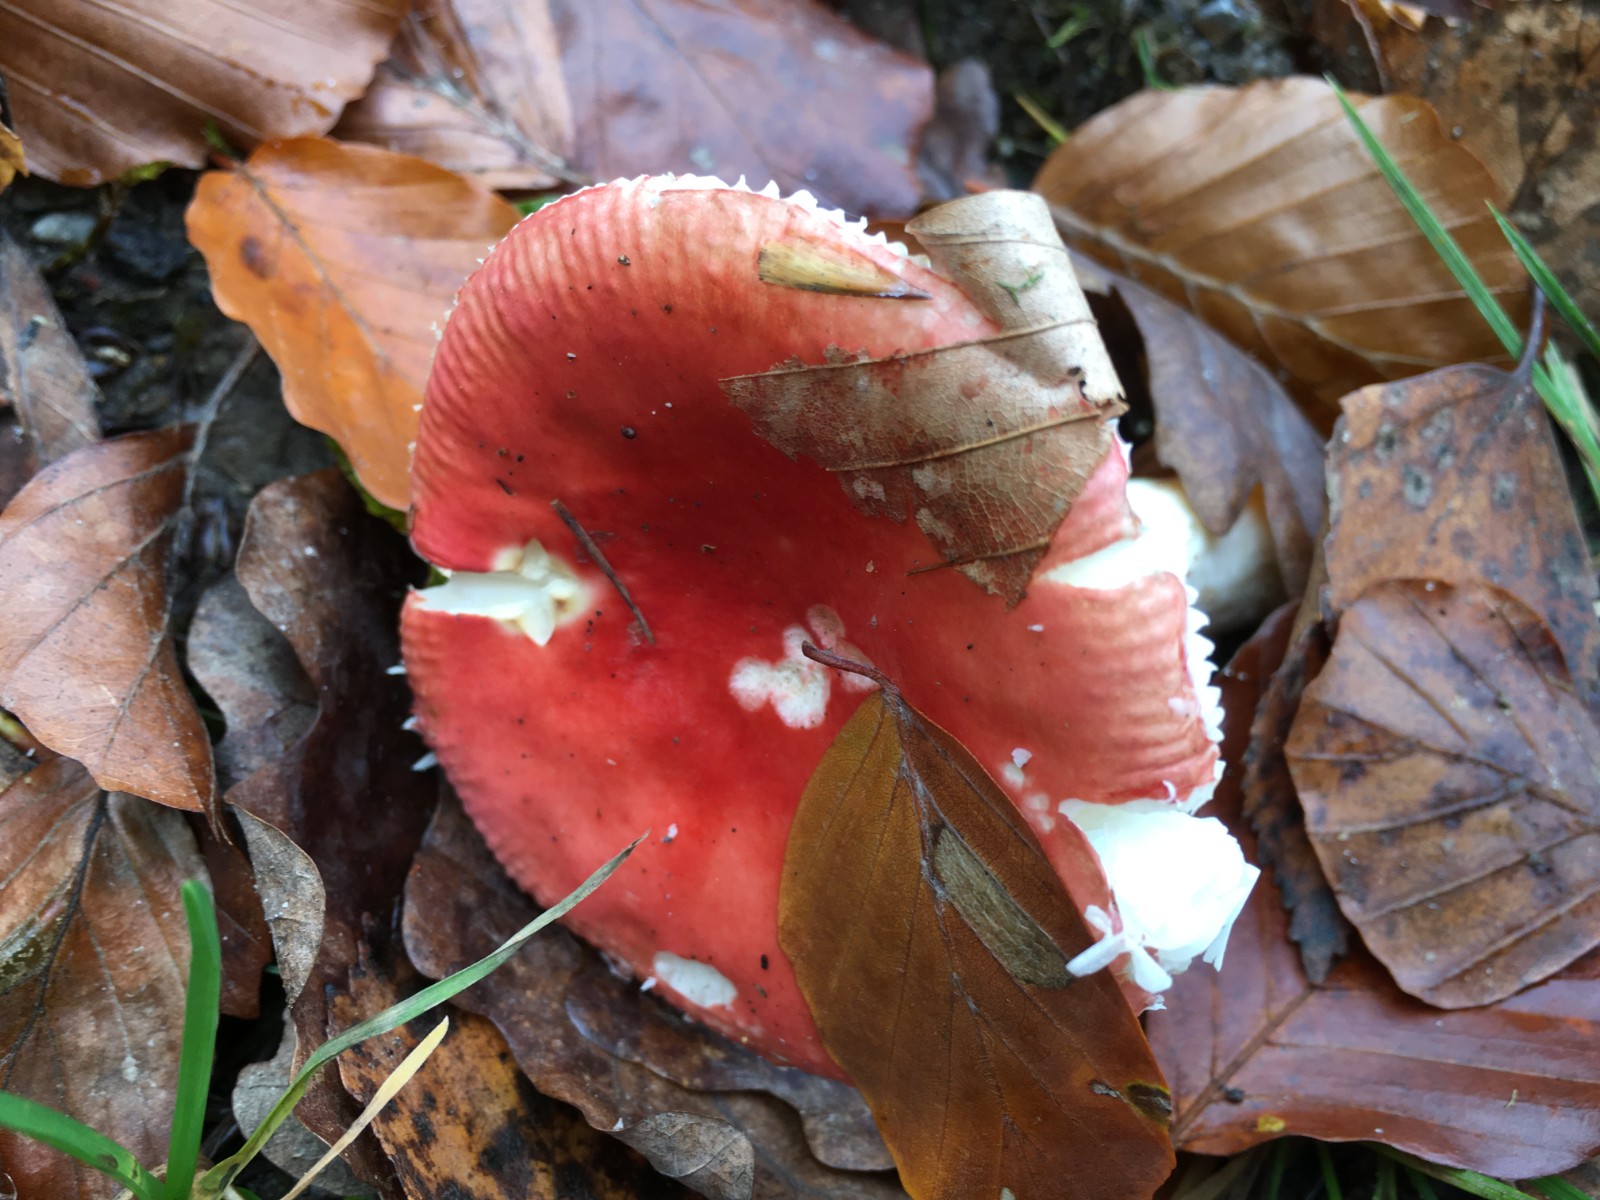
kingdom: Fungi
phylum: Basidiomycota
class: Agaricomycetes
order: Russulales
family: Russulaceae
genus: Russula
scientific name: Russula
